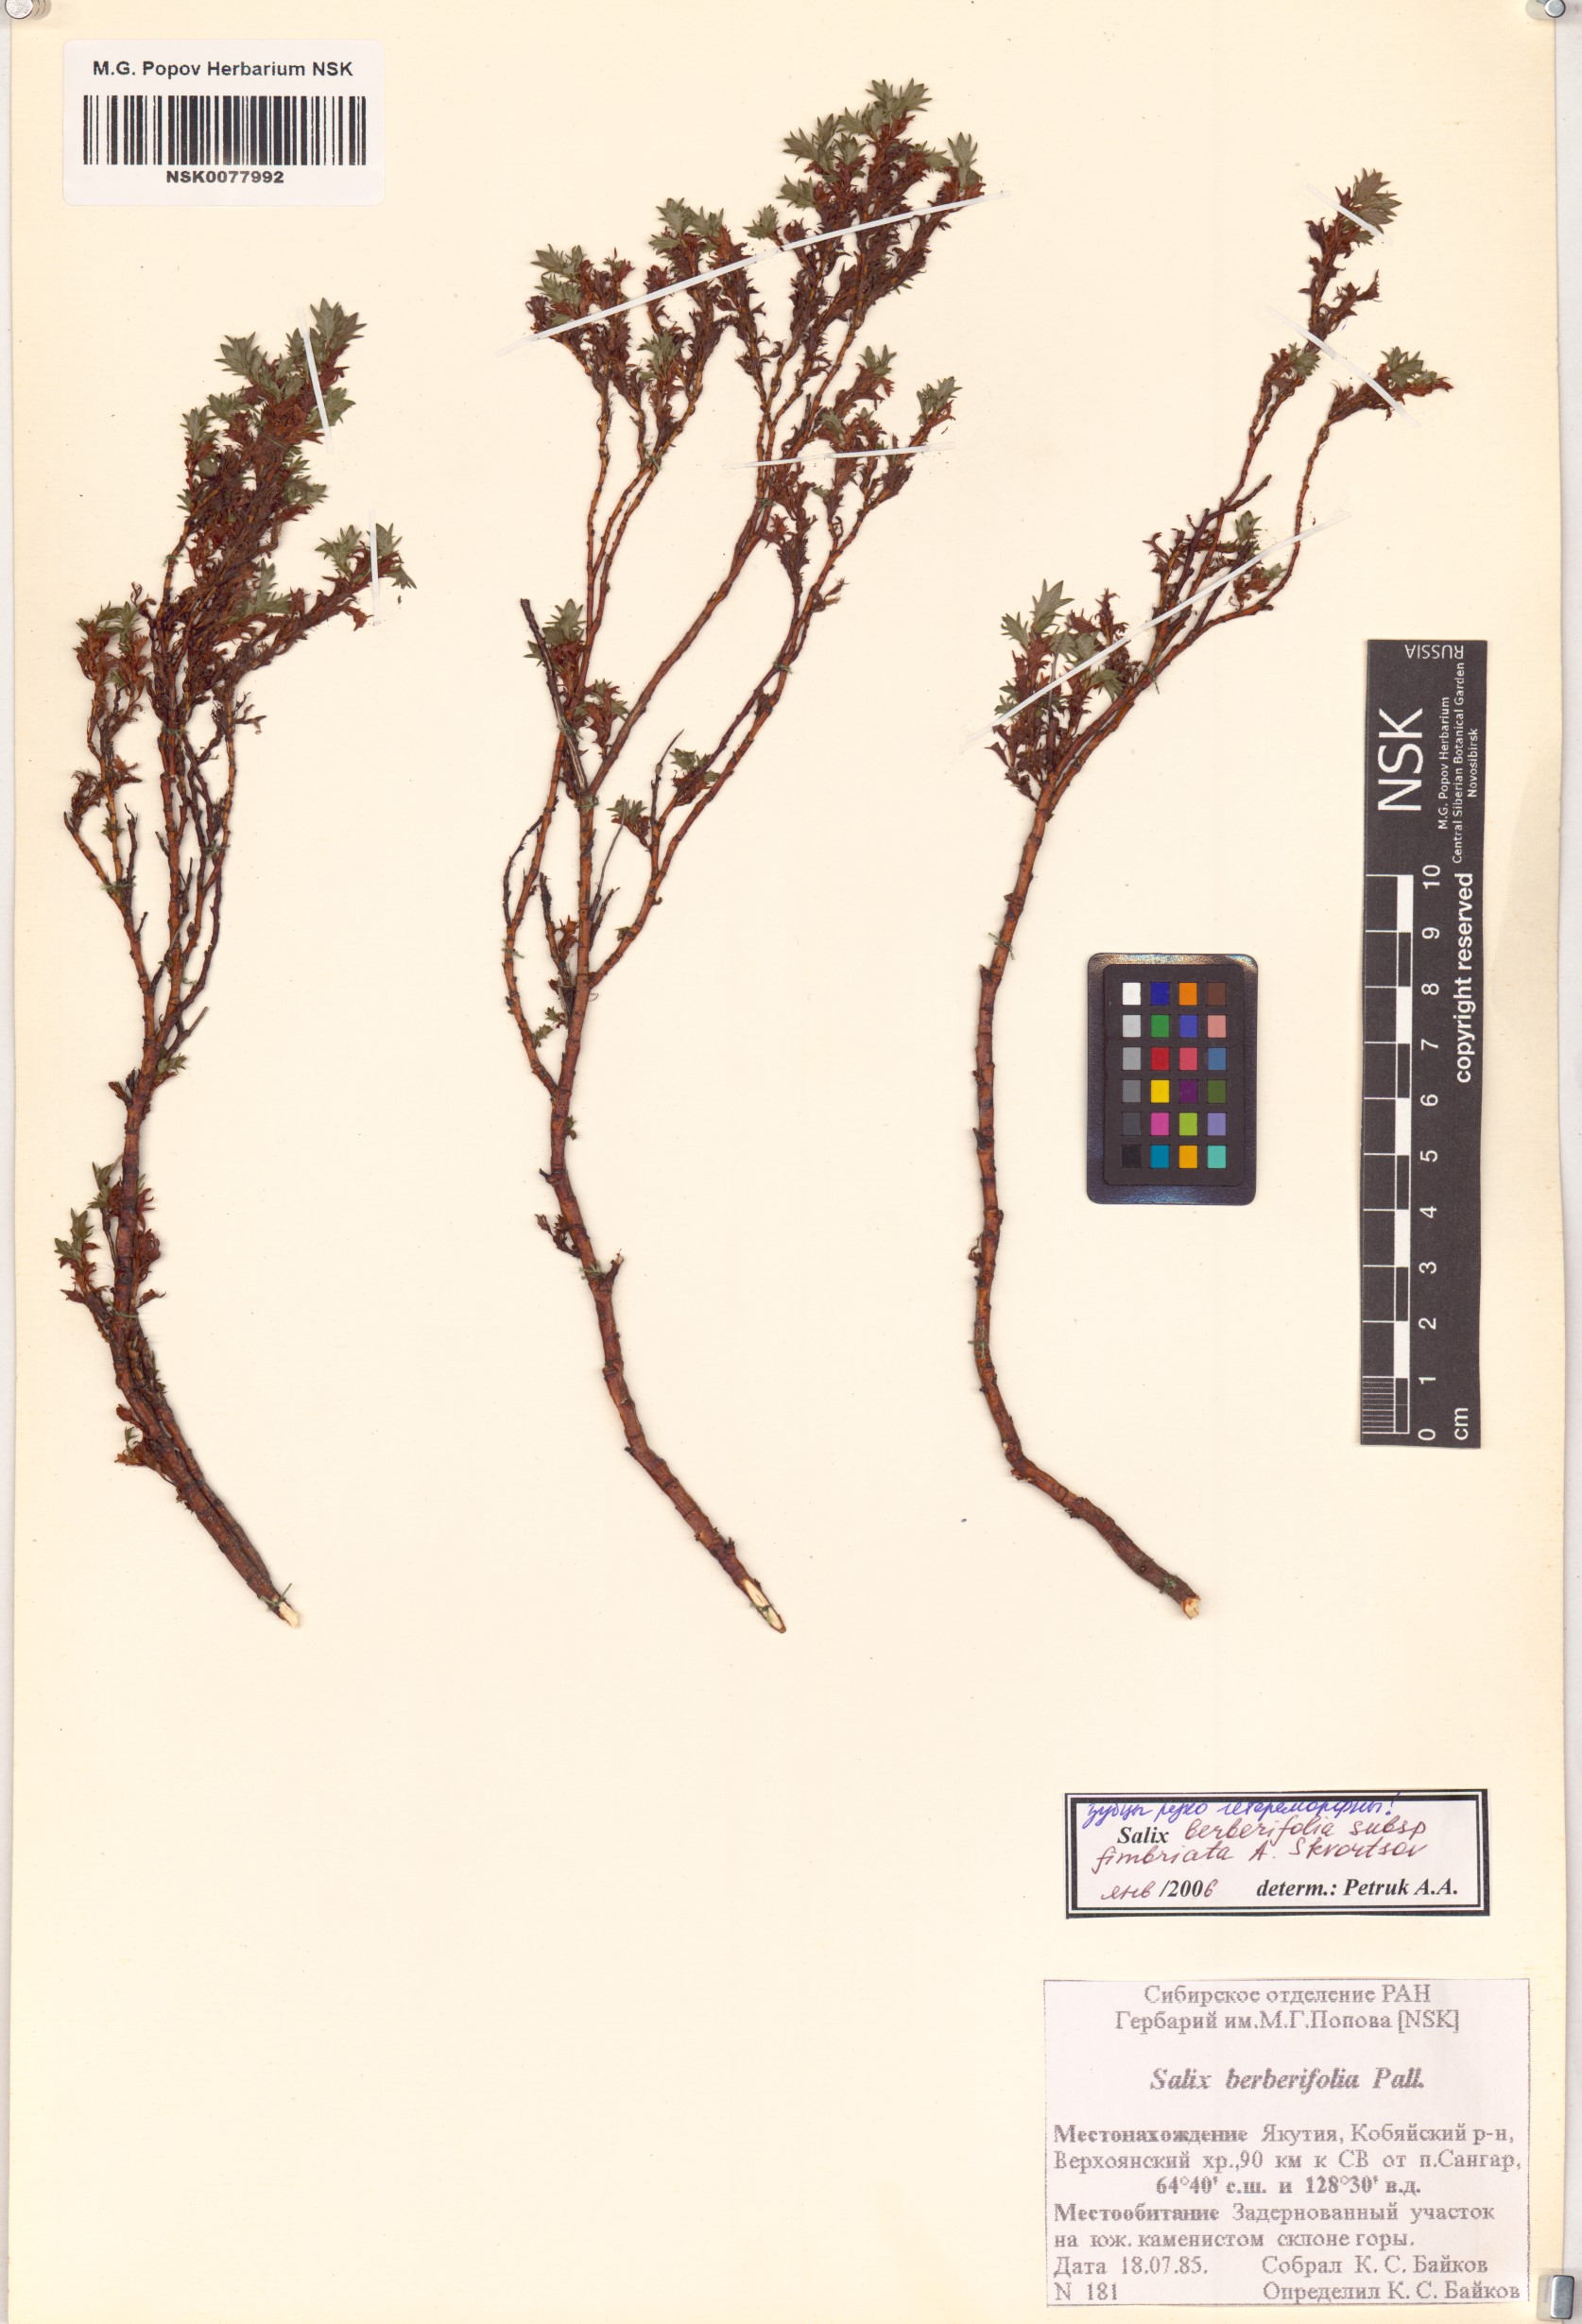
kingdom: Plantae
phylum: Tracheophyta
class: Magnoliopsida
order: Malpighiales
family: Salicaceae
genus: Salix
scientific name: Salix berberifolia
